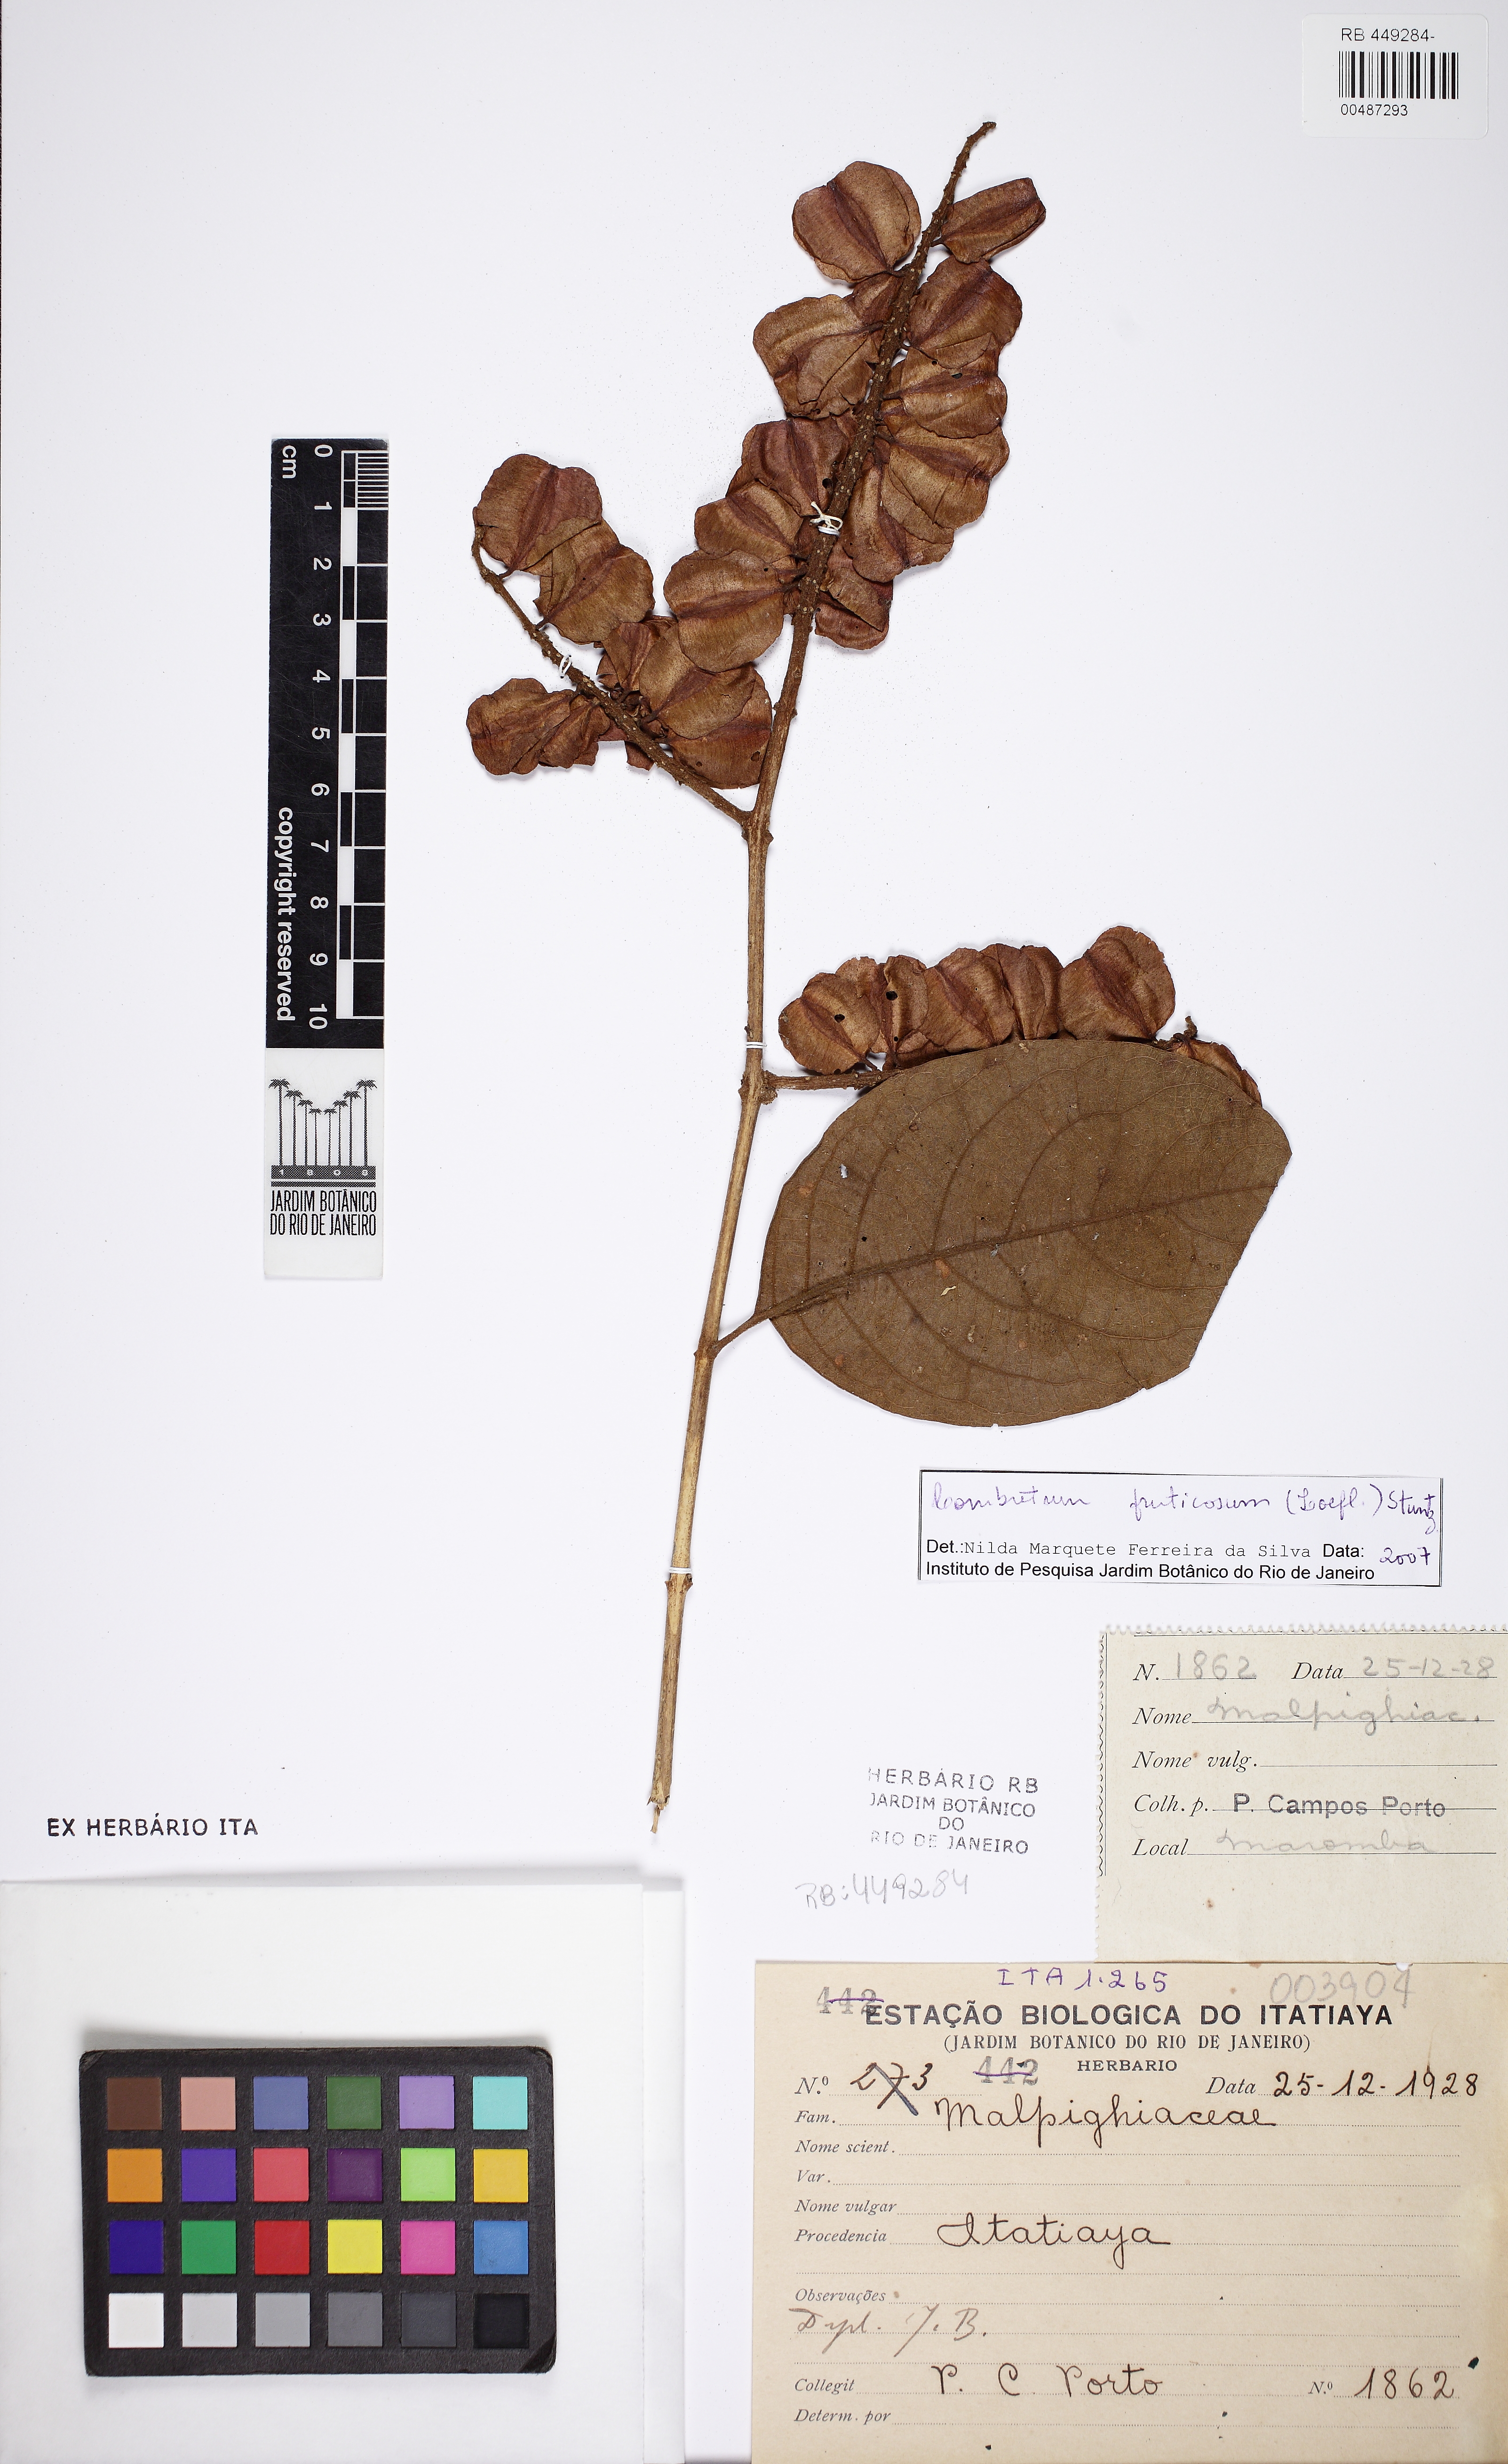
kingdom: Plantae
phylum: Tracheophyta
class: Magnoliopsida
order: Myrtales
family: Combretaceae
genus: Combretum
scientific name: Combretum fruticosum
